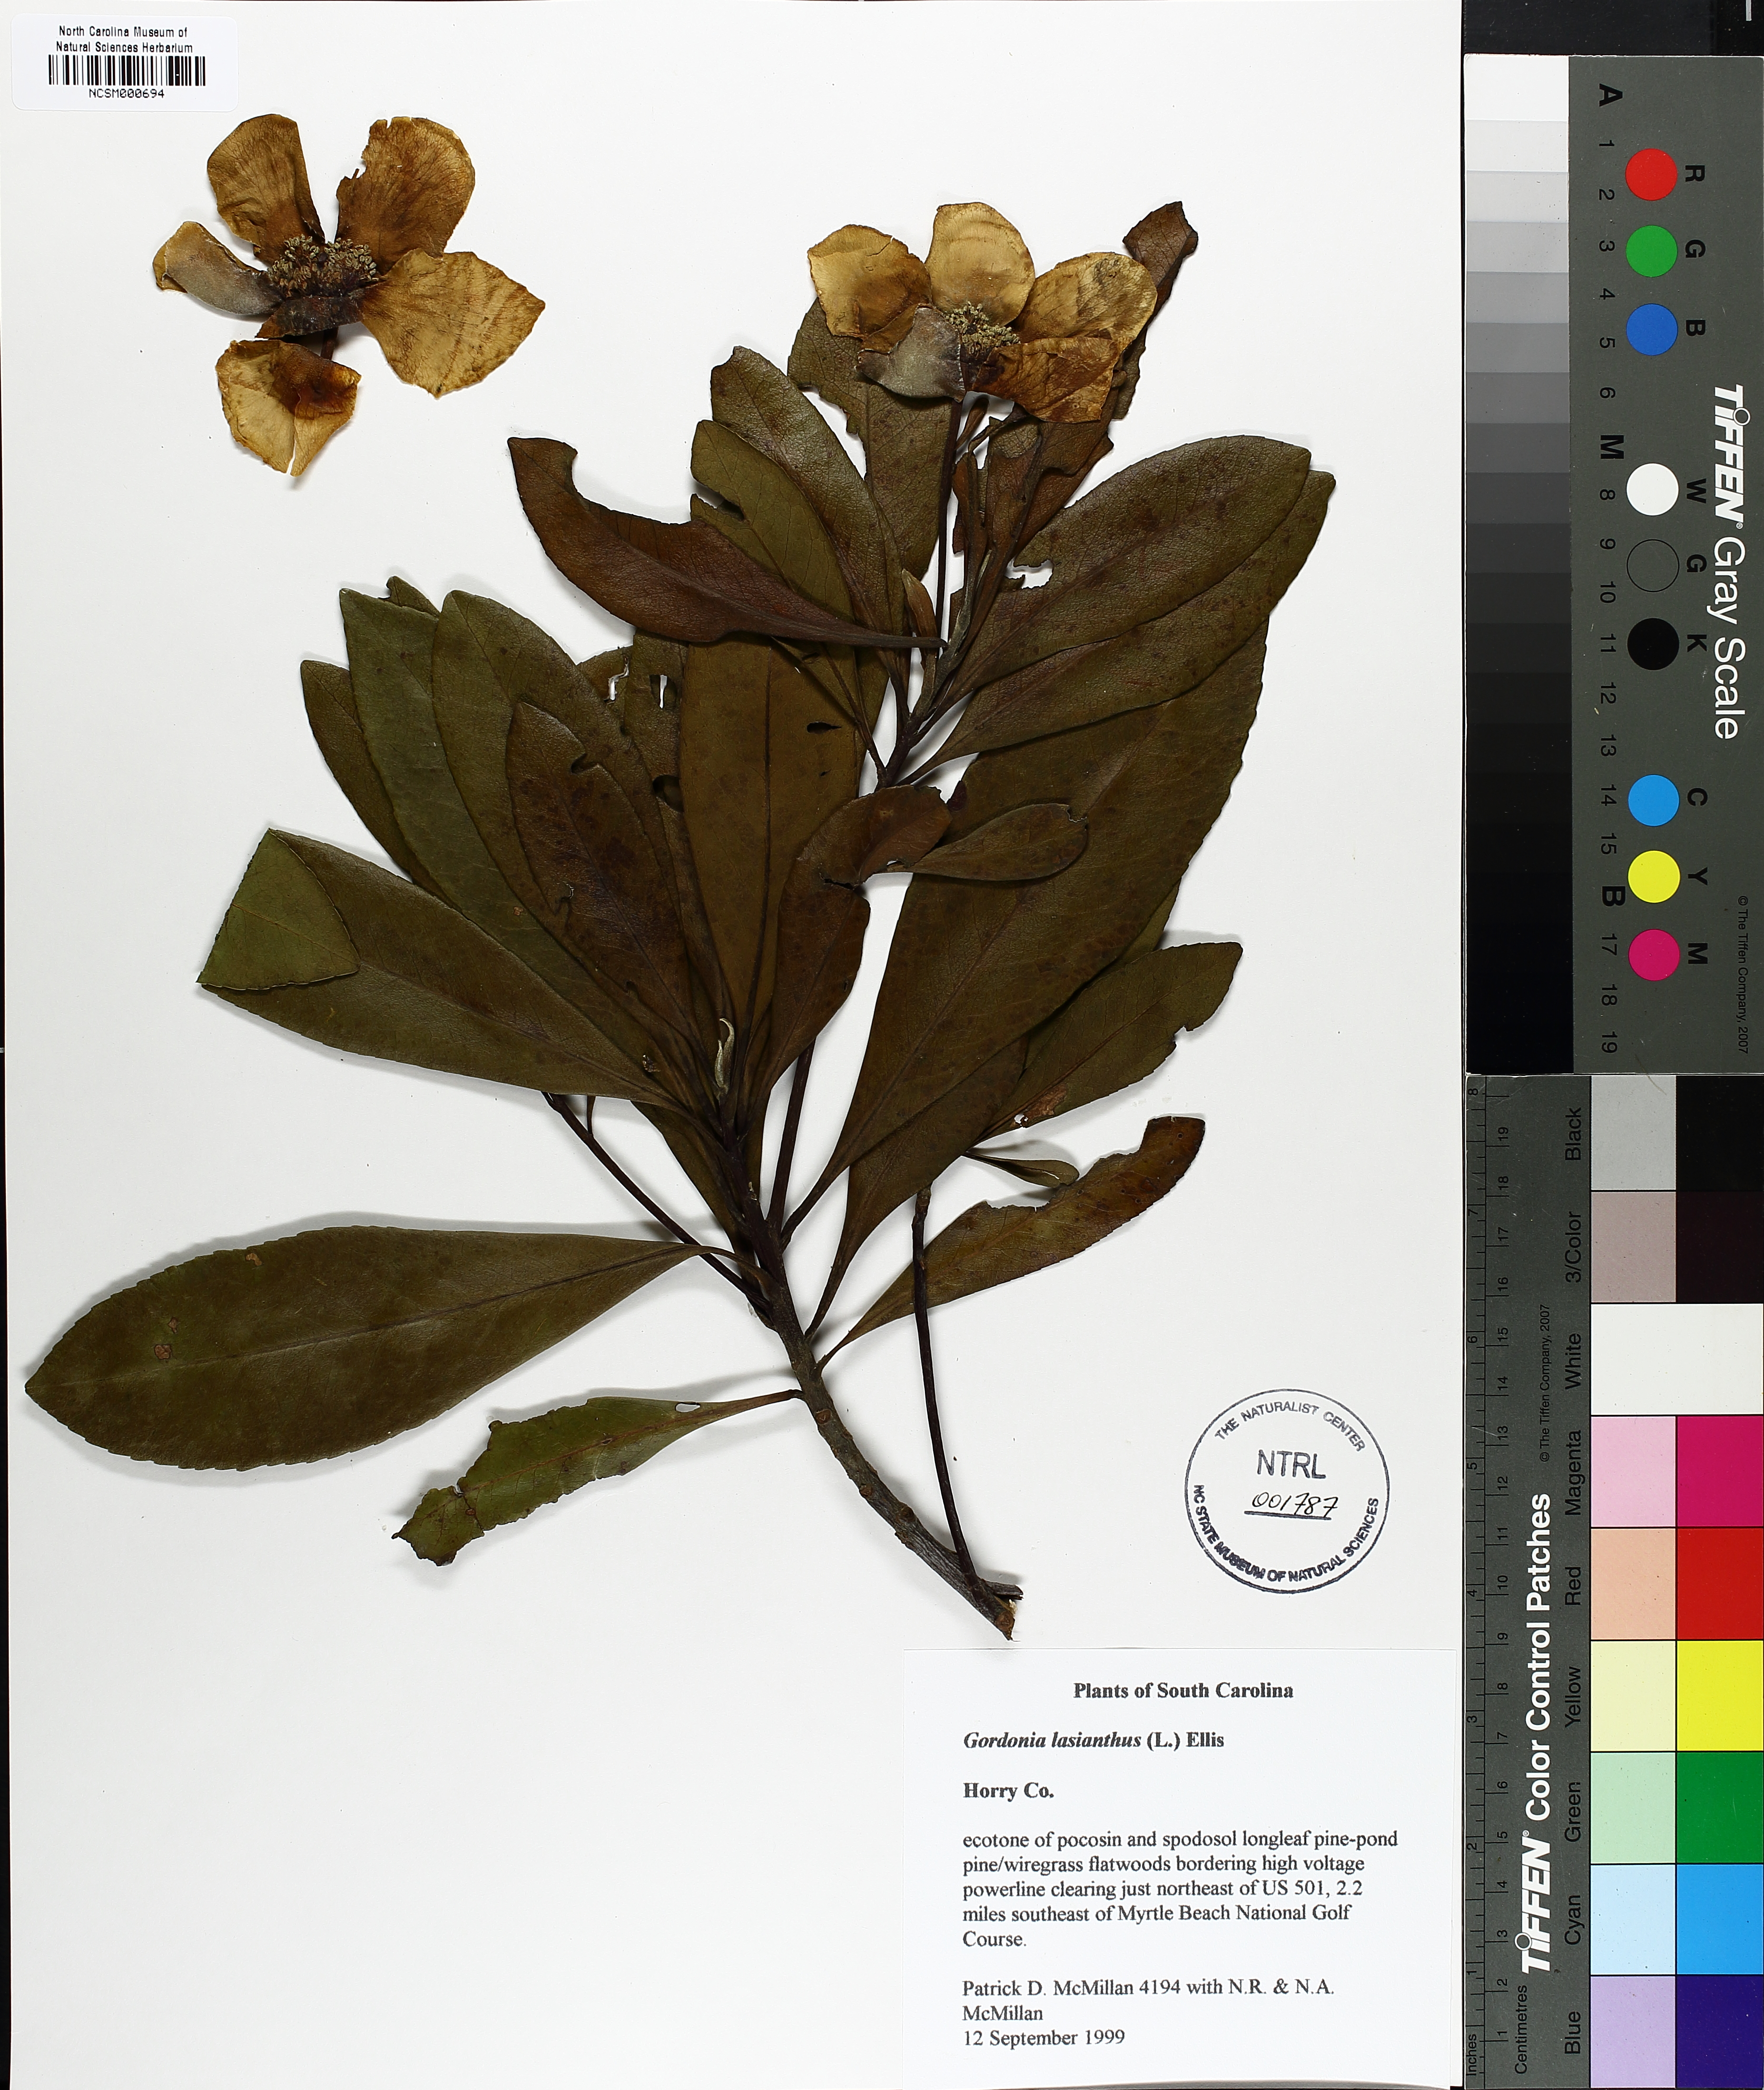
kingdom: Plantae
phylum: Tracheophyta
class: Magnoliopsida
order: Ericales
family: Theaceae
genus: Gordonia
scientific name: Gordonia lasianthus
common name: Loblolly bay
